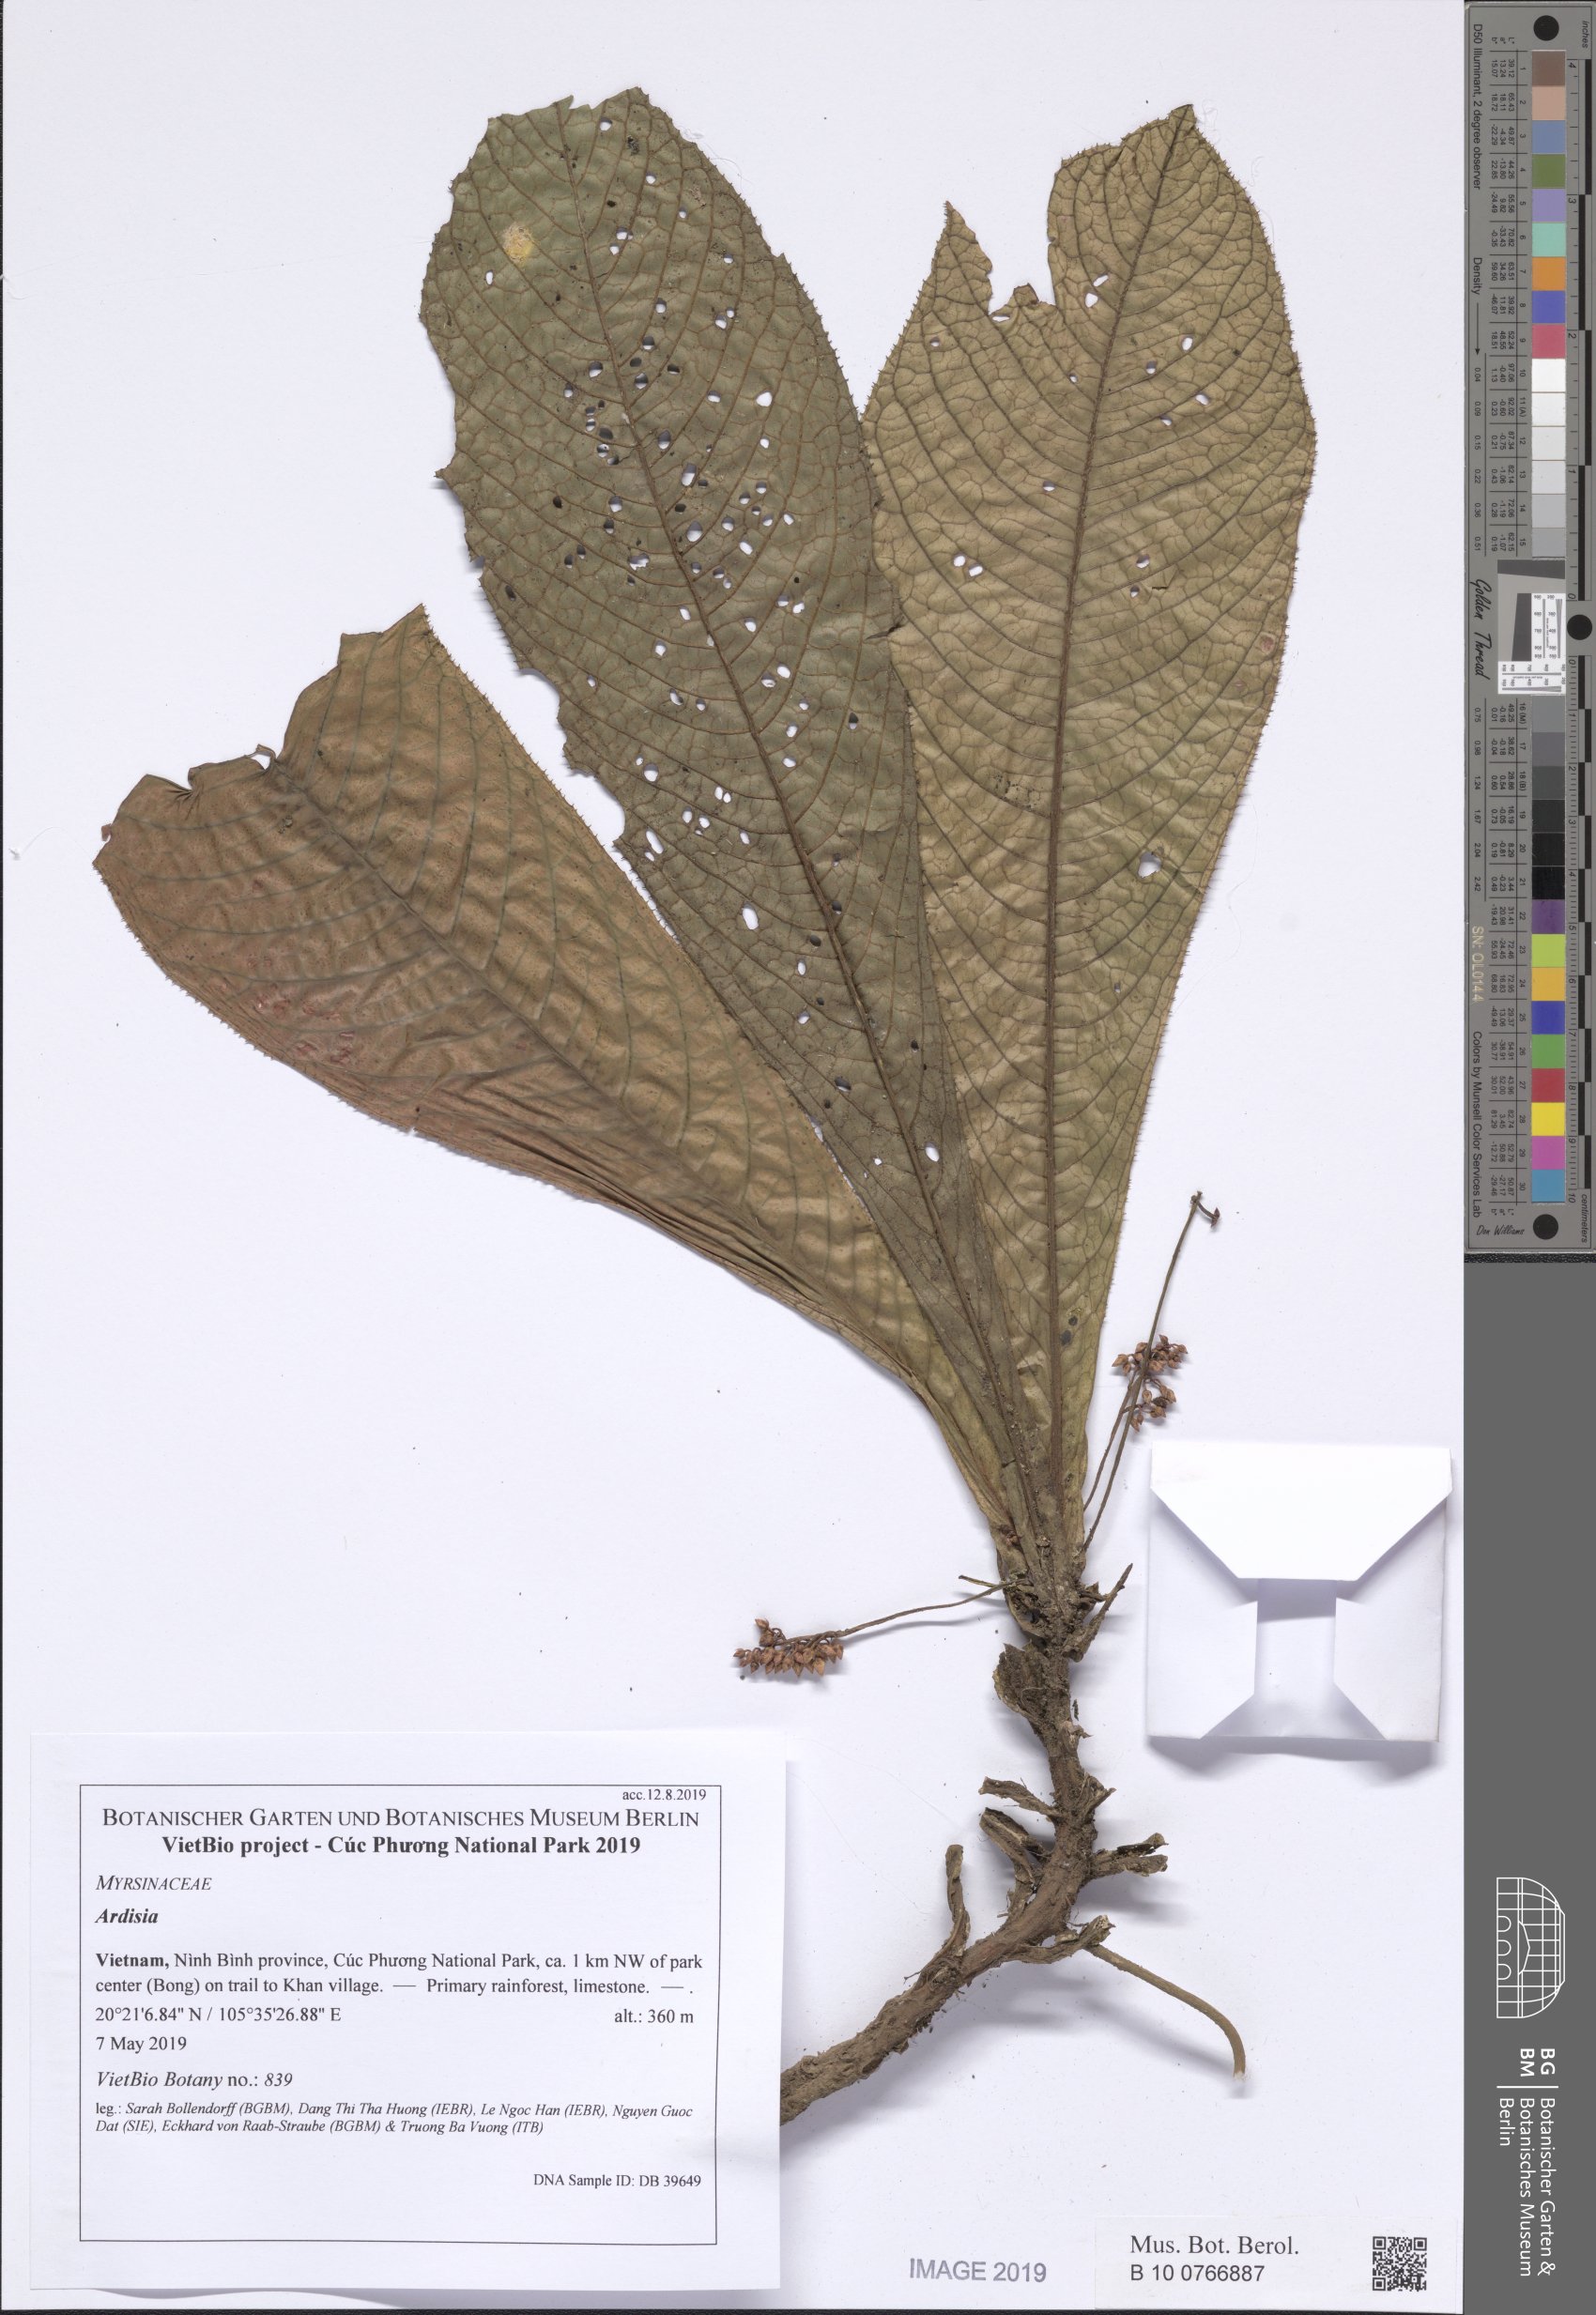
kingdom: Plantae
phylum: Tracheophyta
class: Magnoliopsida
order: Ericales
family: Primulaceae
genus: Ardisia
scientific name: Ardisia perpendicularis
